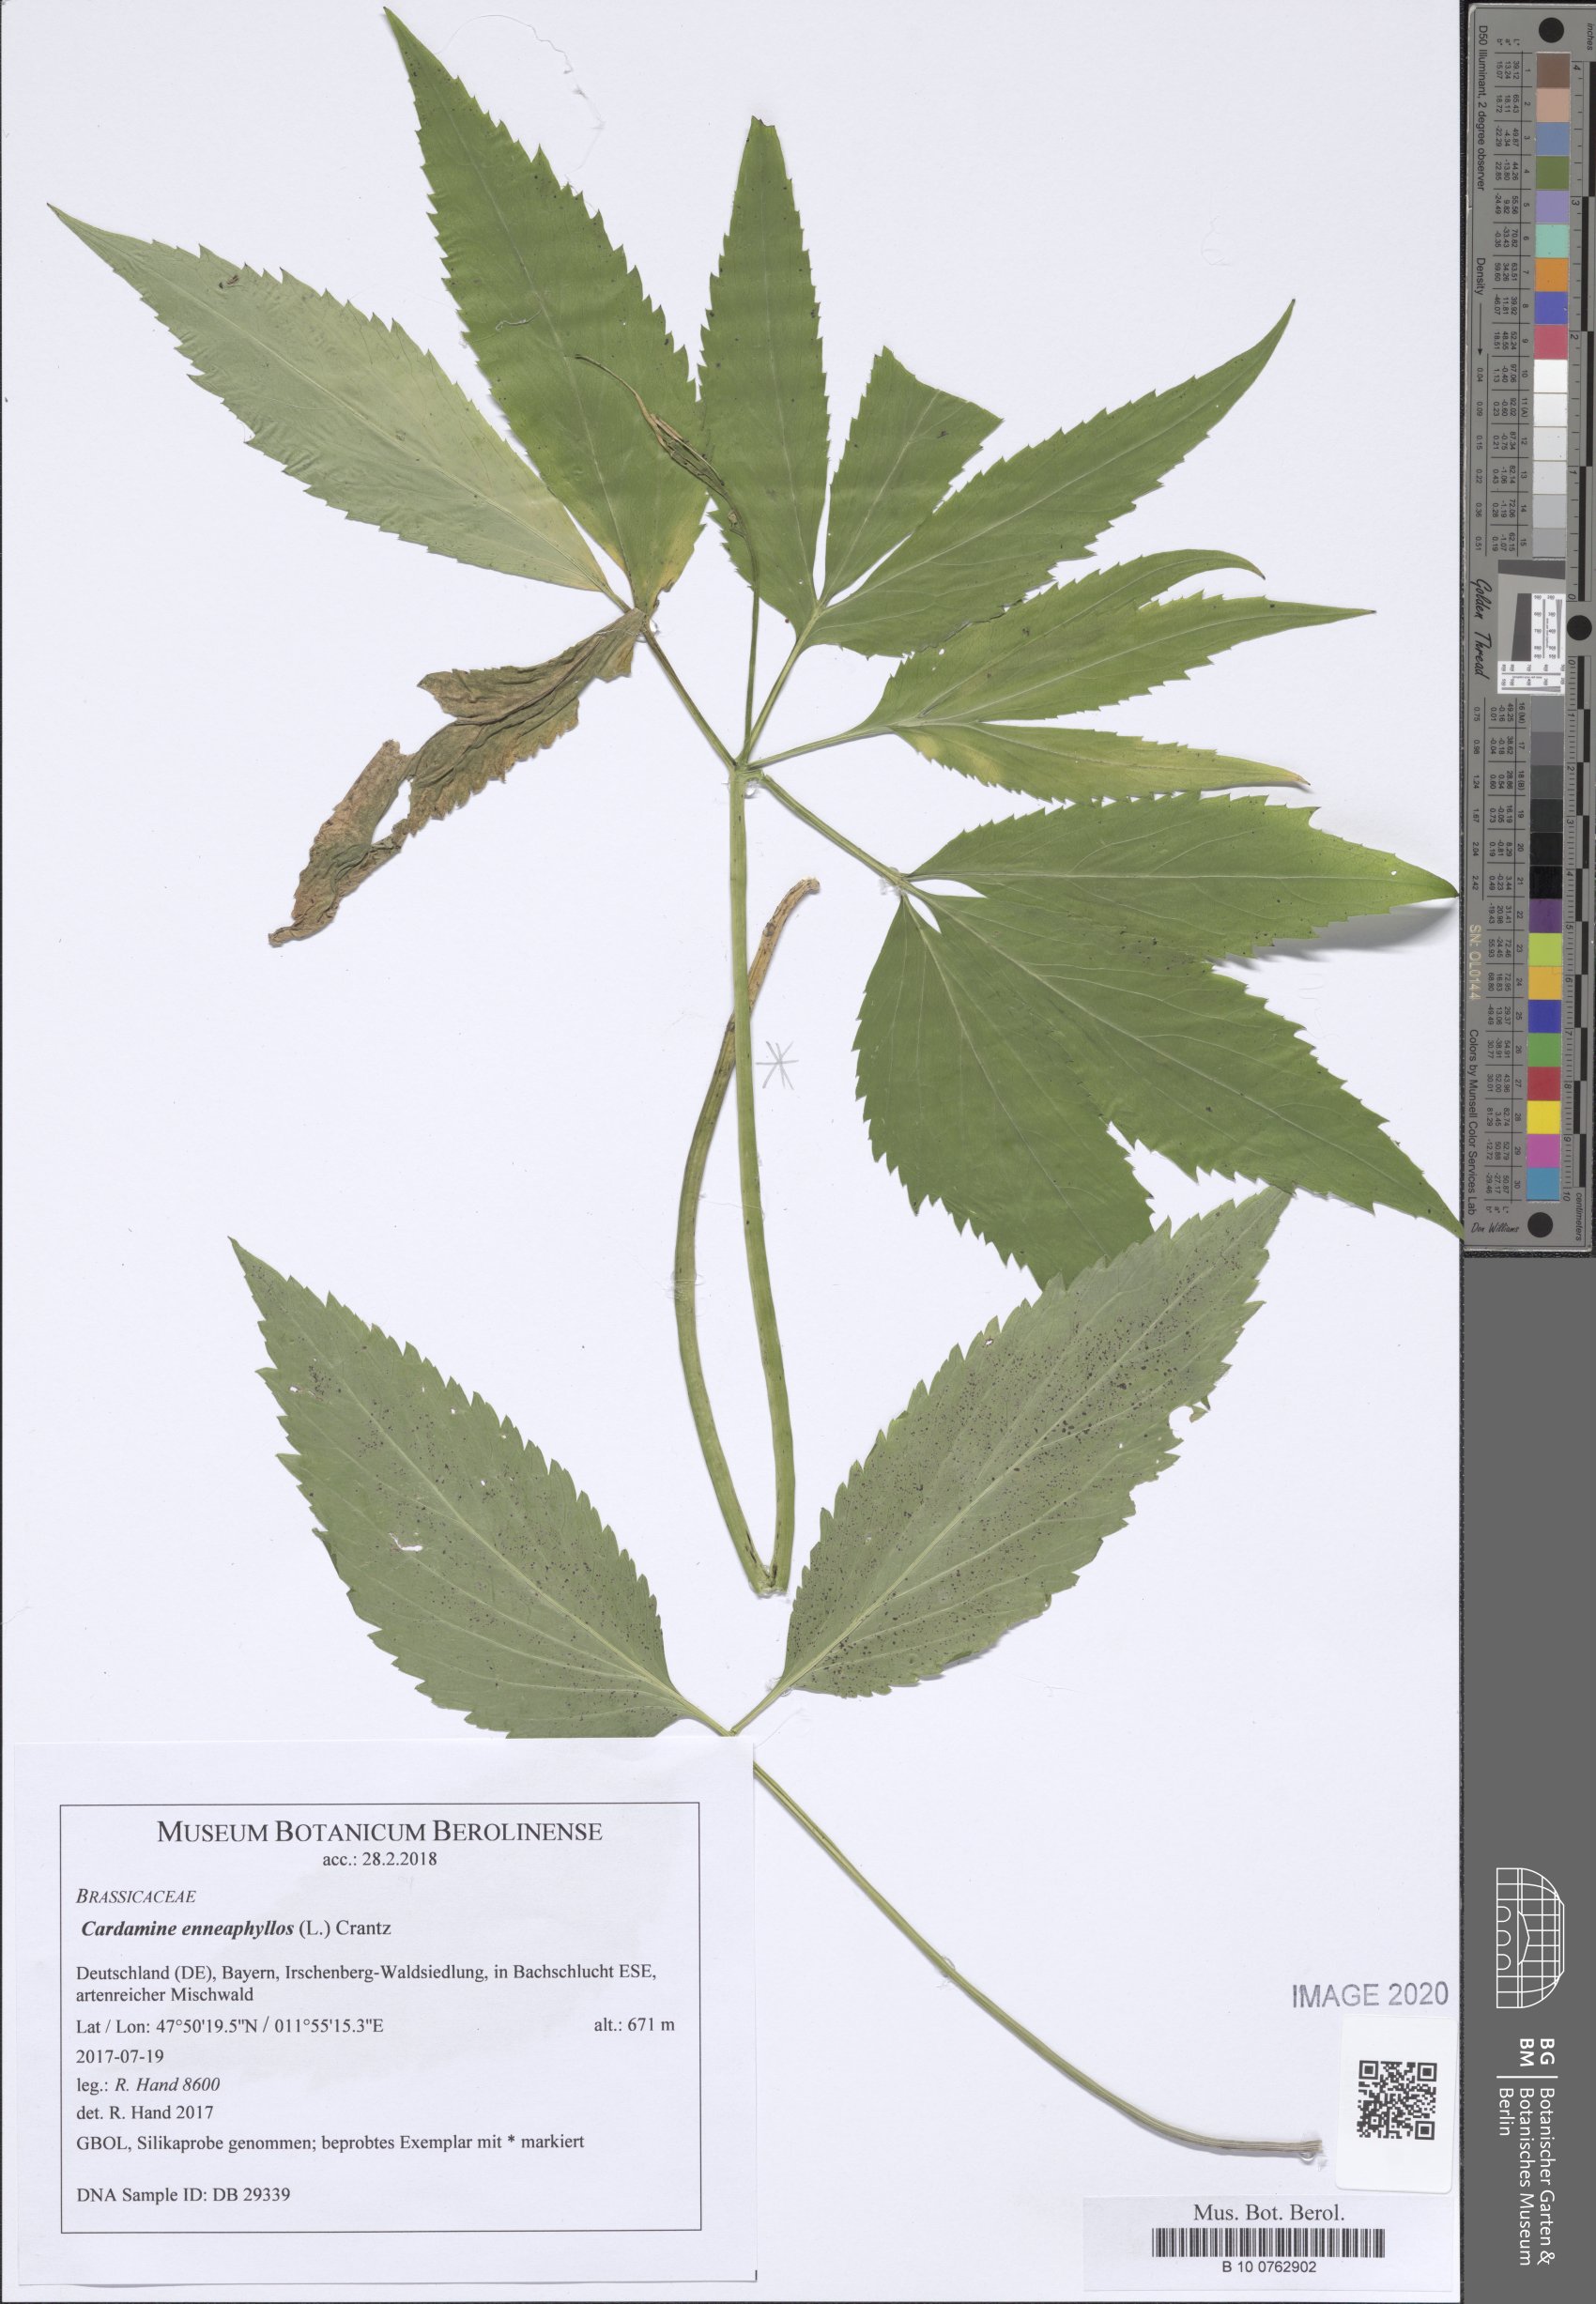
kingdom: Plantae
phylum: Tracheophyta
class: Magnoliopsida
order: Brassicales
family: Brassicaceae
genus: Cardamine
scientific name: Cardamine enneaphyllos
